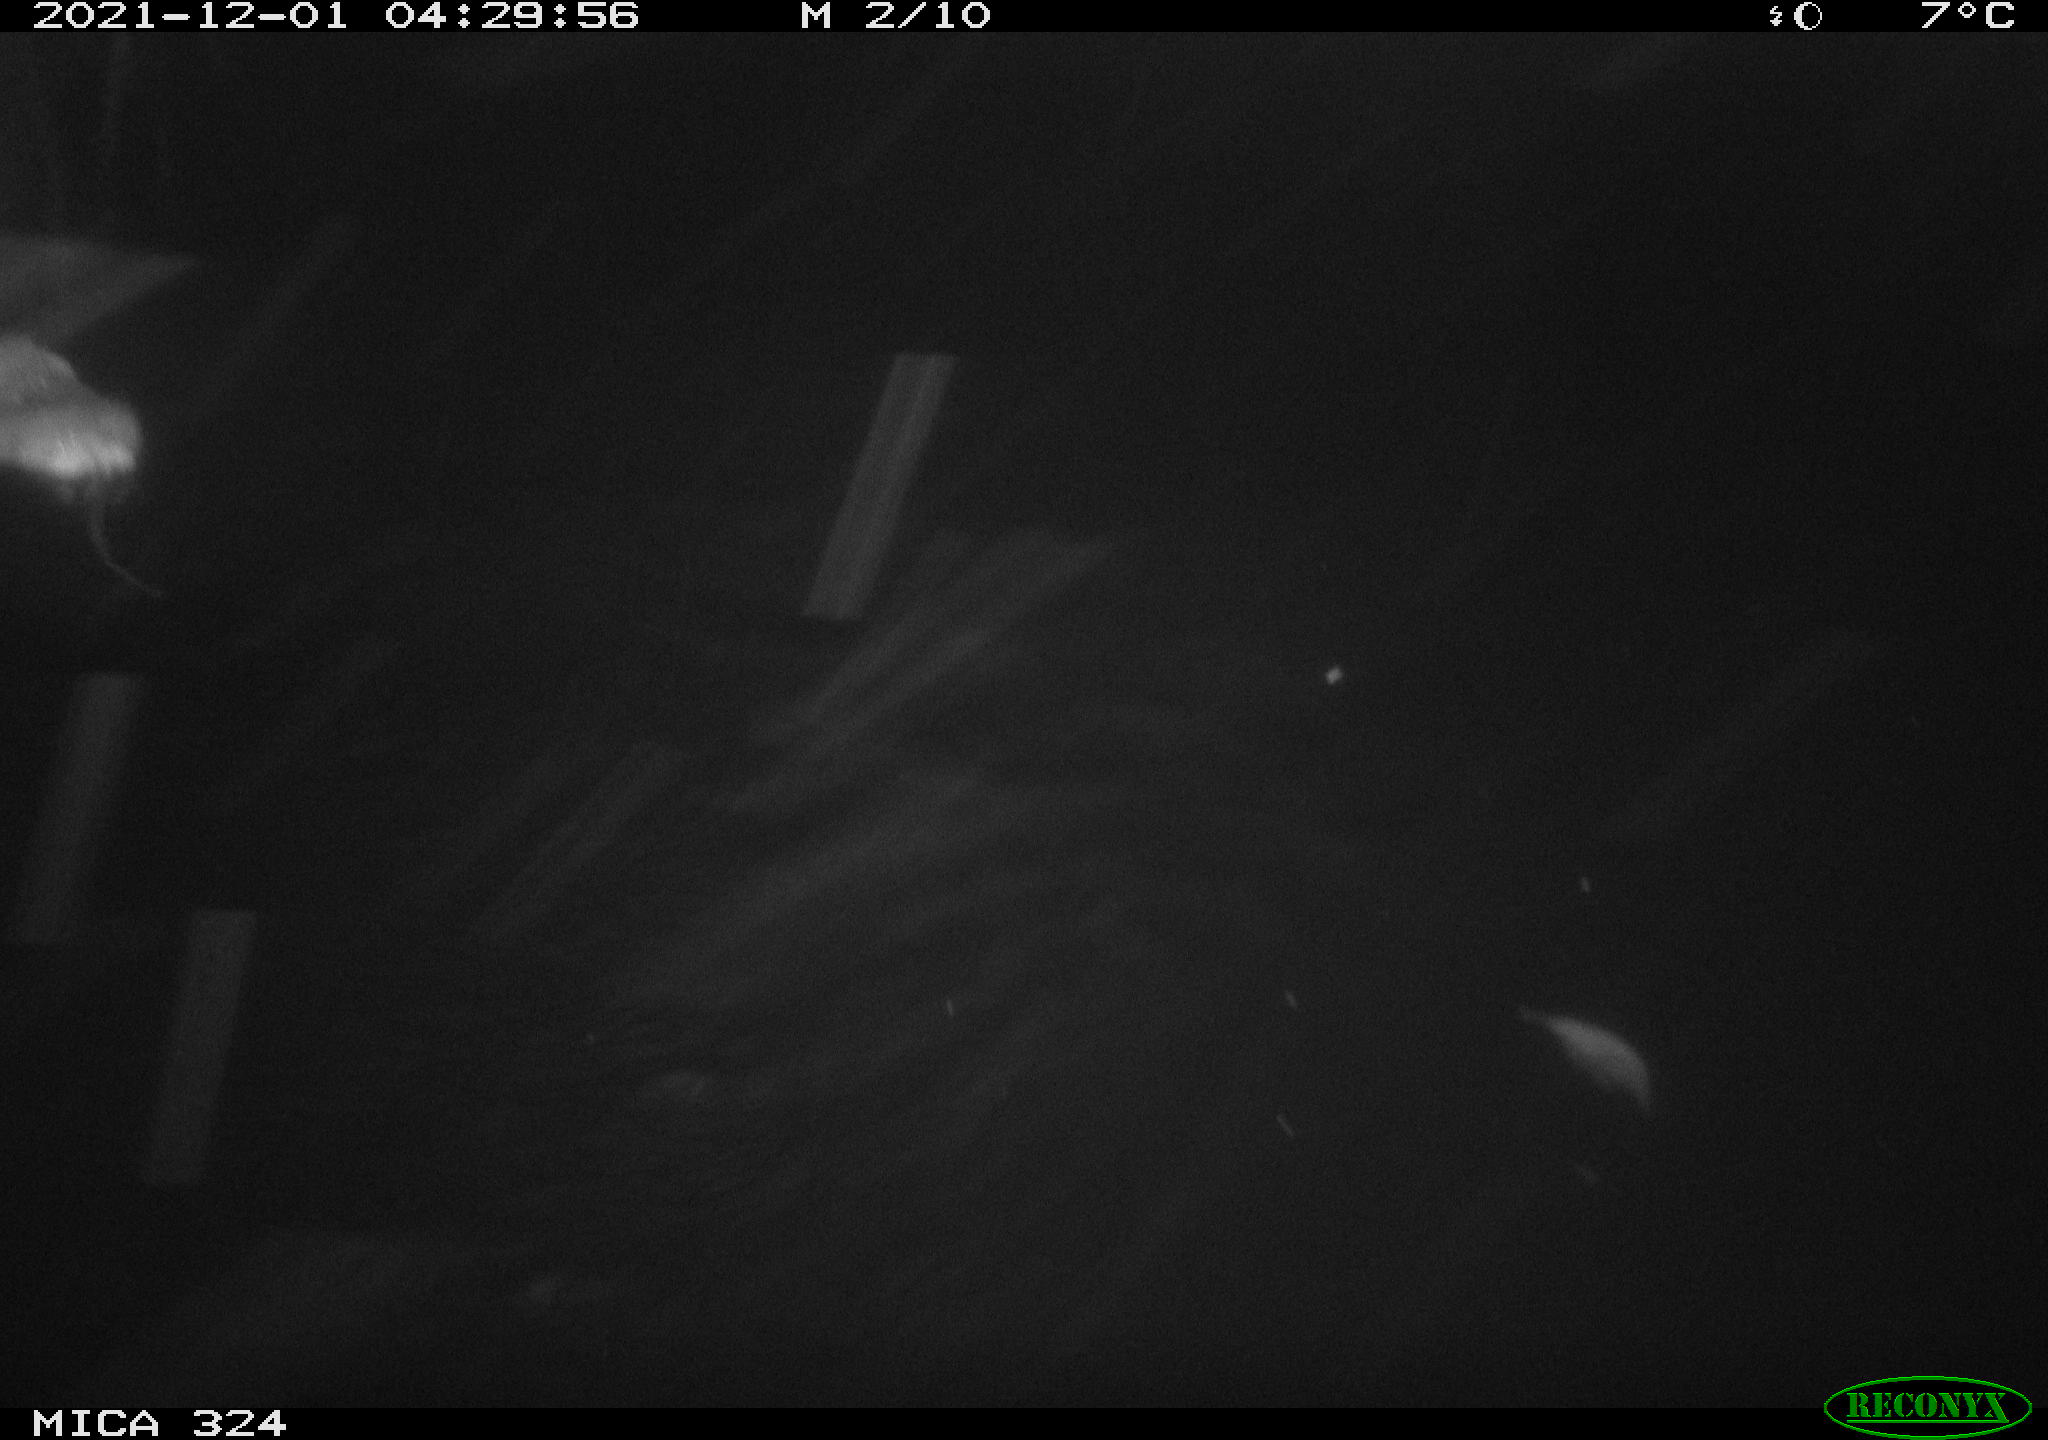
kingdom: Animalia
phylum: Chordata
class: Mammalia
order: Rodentia
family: Cricetidae
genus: Ondatra
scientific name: Ondatra zibethicus
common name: Muskrat
